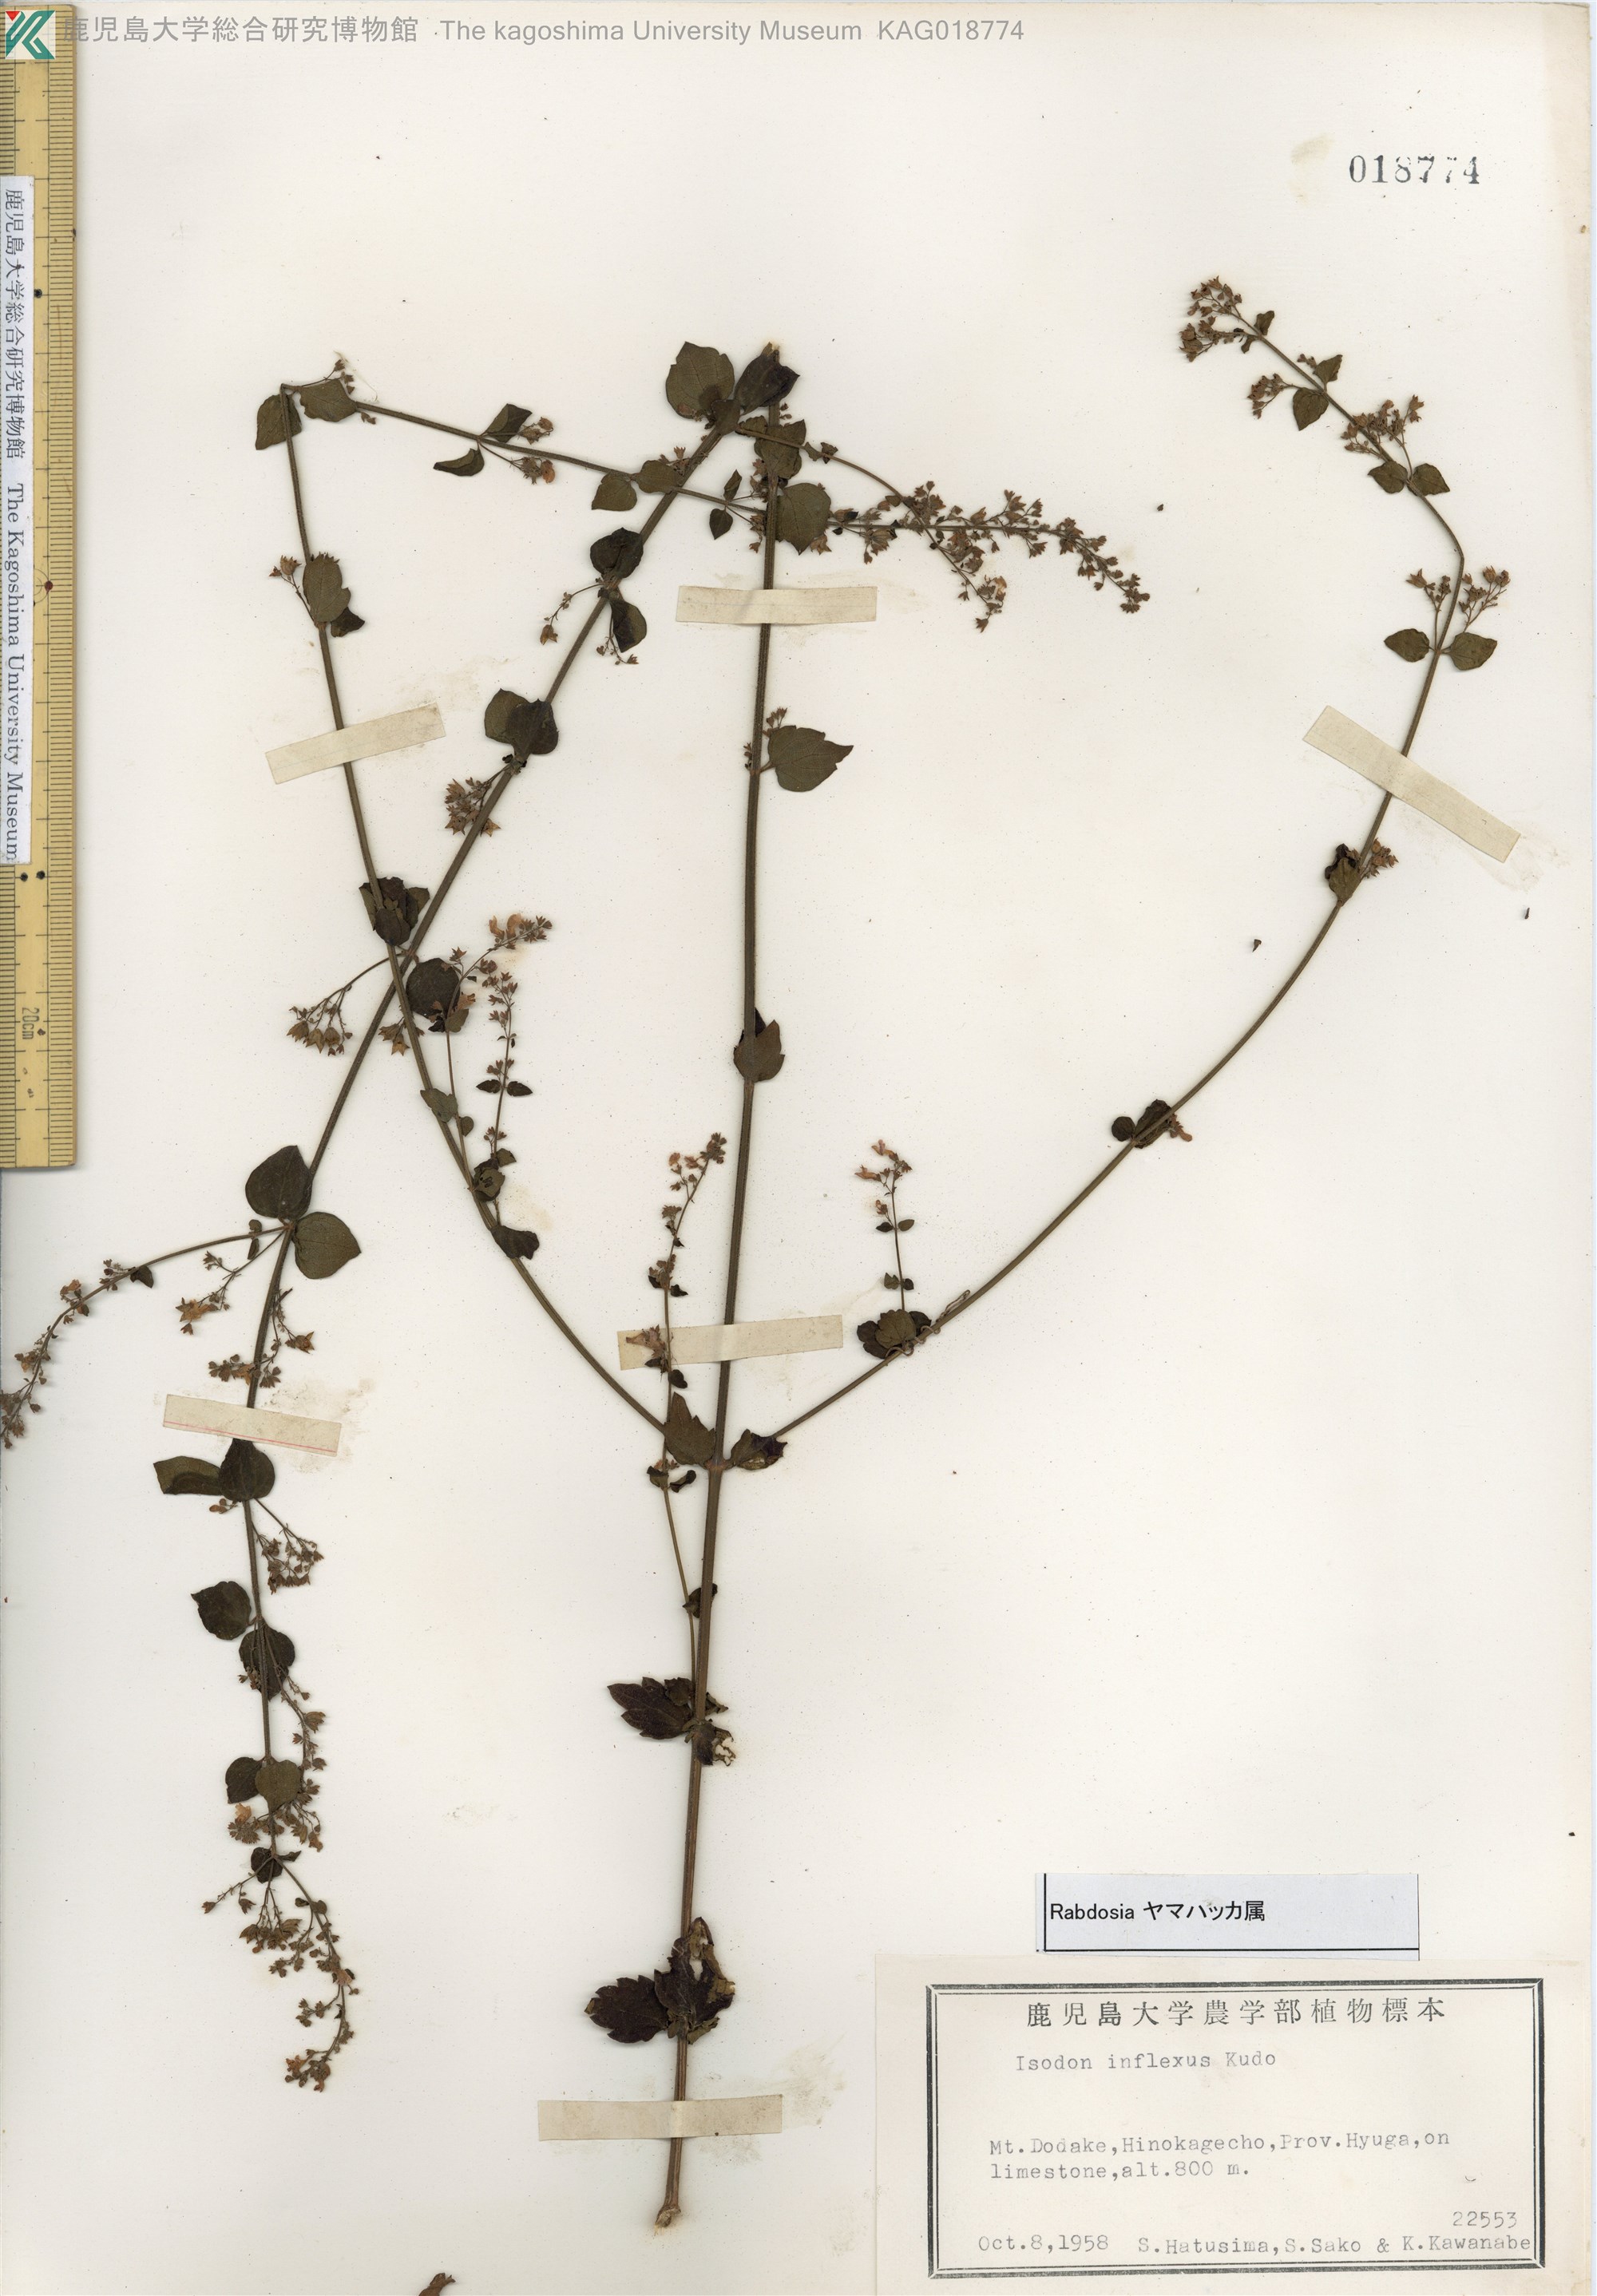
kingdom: Plantae
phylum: Tracheophyta
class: Magnoliopsida
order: Lamiales
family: Lamiaceae
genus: Isodon
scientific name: Isodon inflexus
